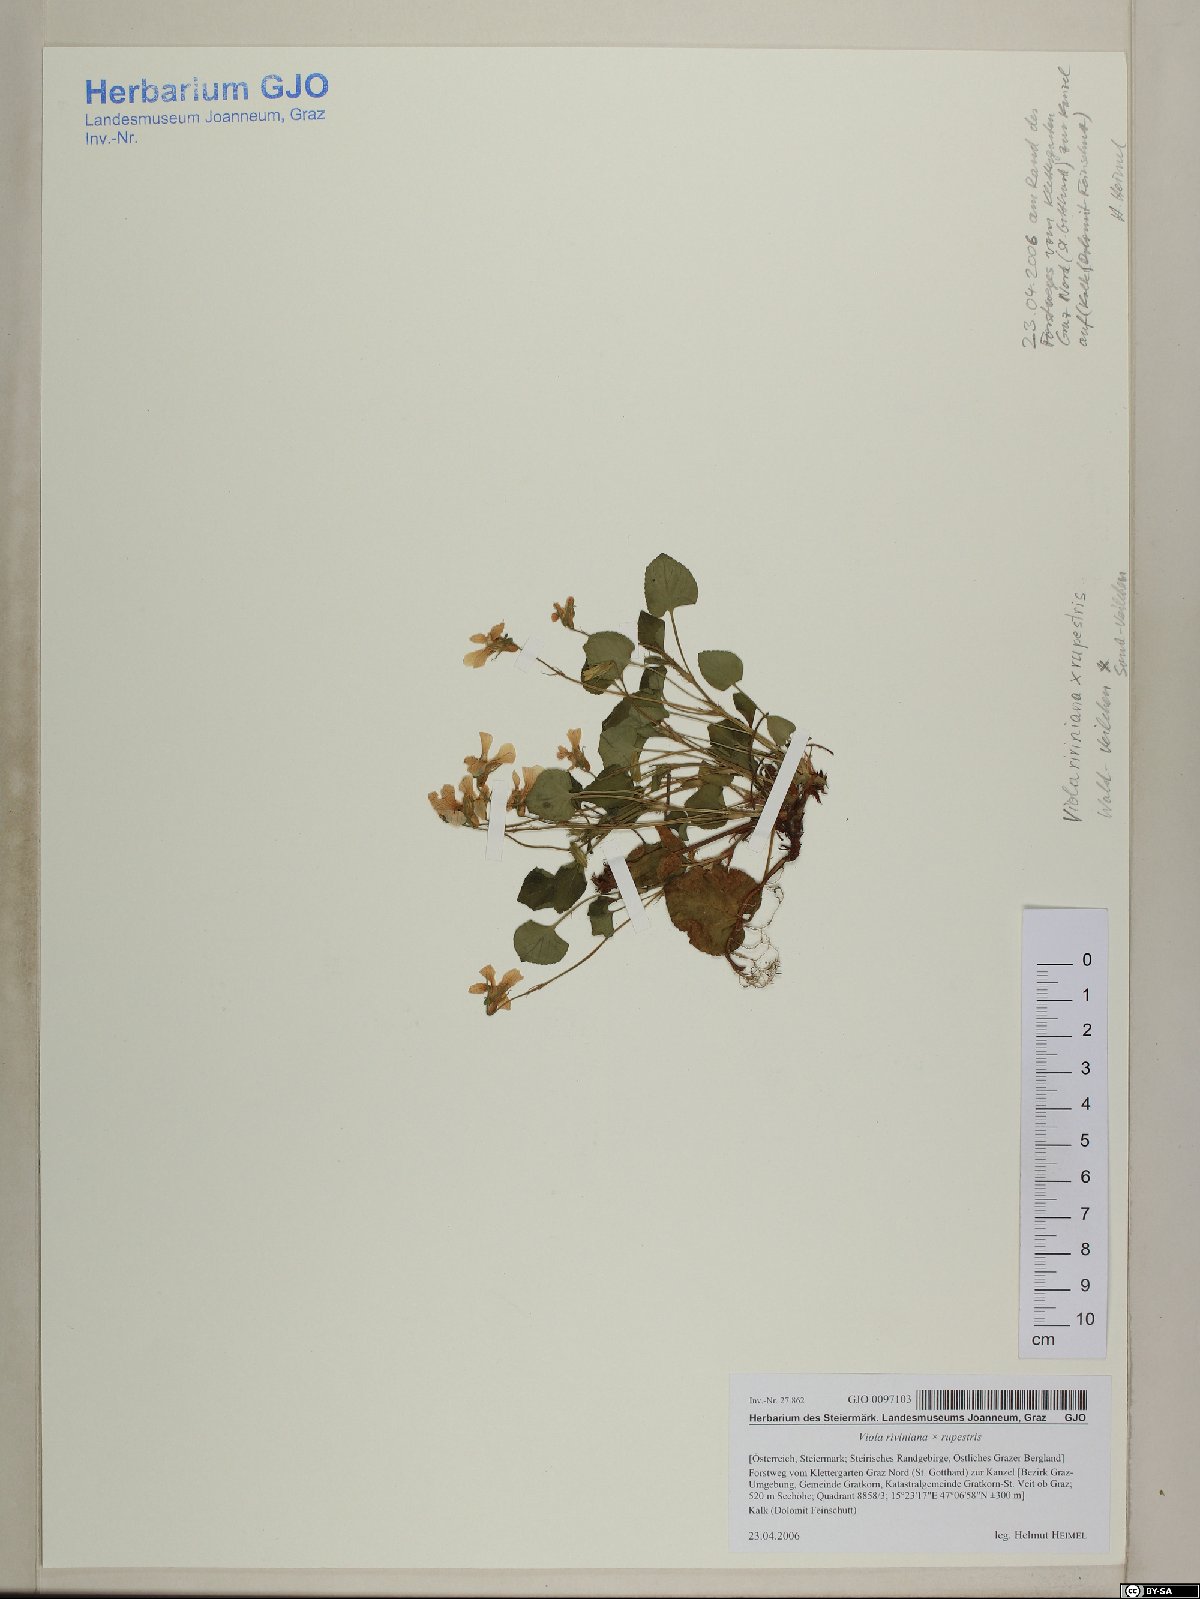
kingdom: Plantae
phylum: Tracheophyta
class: Magnoliopsida
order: Malpighiales
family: Violaceae
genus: Viola
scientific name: Viola riviniana
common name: Common dog-violet
